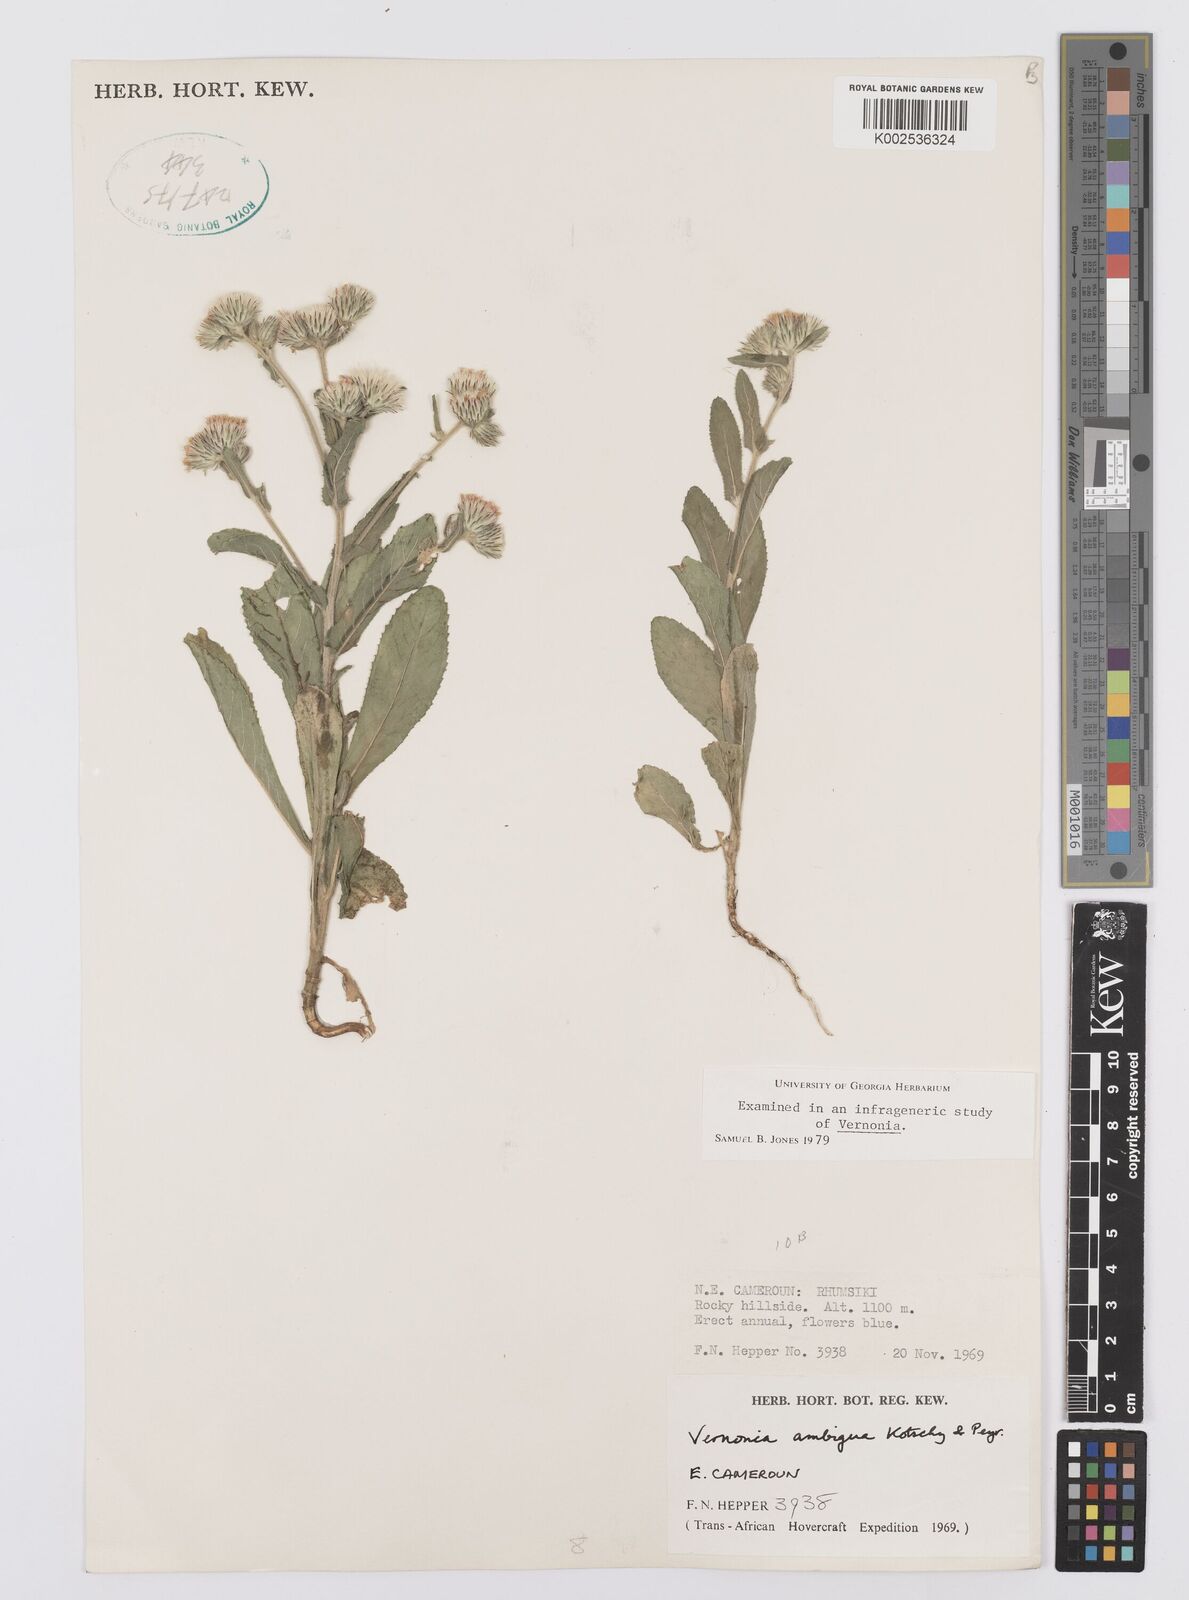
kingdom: Plantae
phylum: Tracheophyta
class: Magnoliopsida
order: Asterales
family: Asteraceae
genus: Vernoniastrum
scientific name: Vernoniastrum ambiguum
